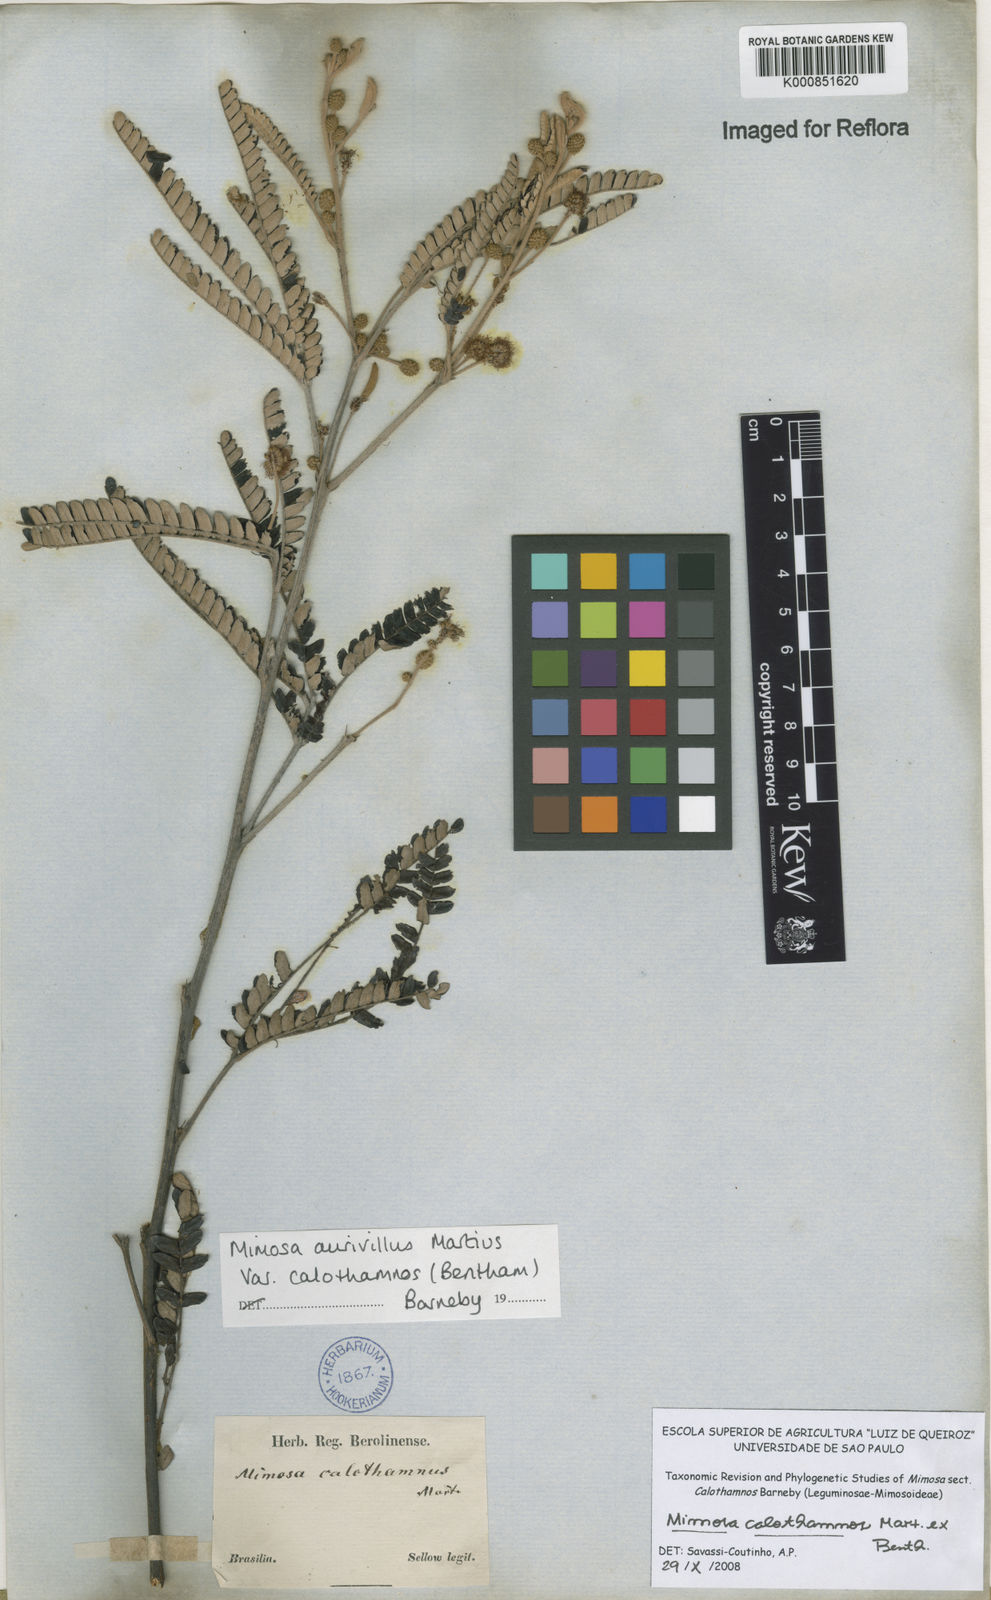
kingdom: Plantae
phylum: Tracheophyta
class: Magnoliopsida
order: Fabales
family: Fabaceae
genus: Mimosa
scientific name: Mimosa aurivillus
